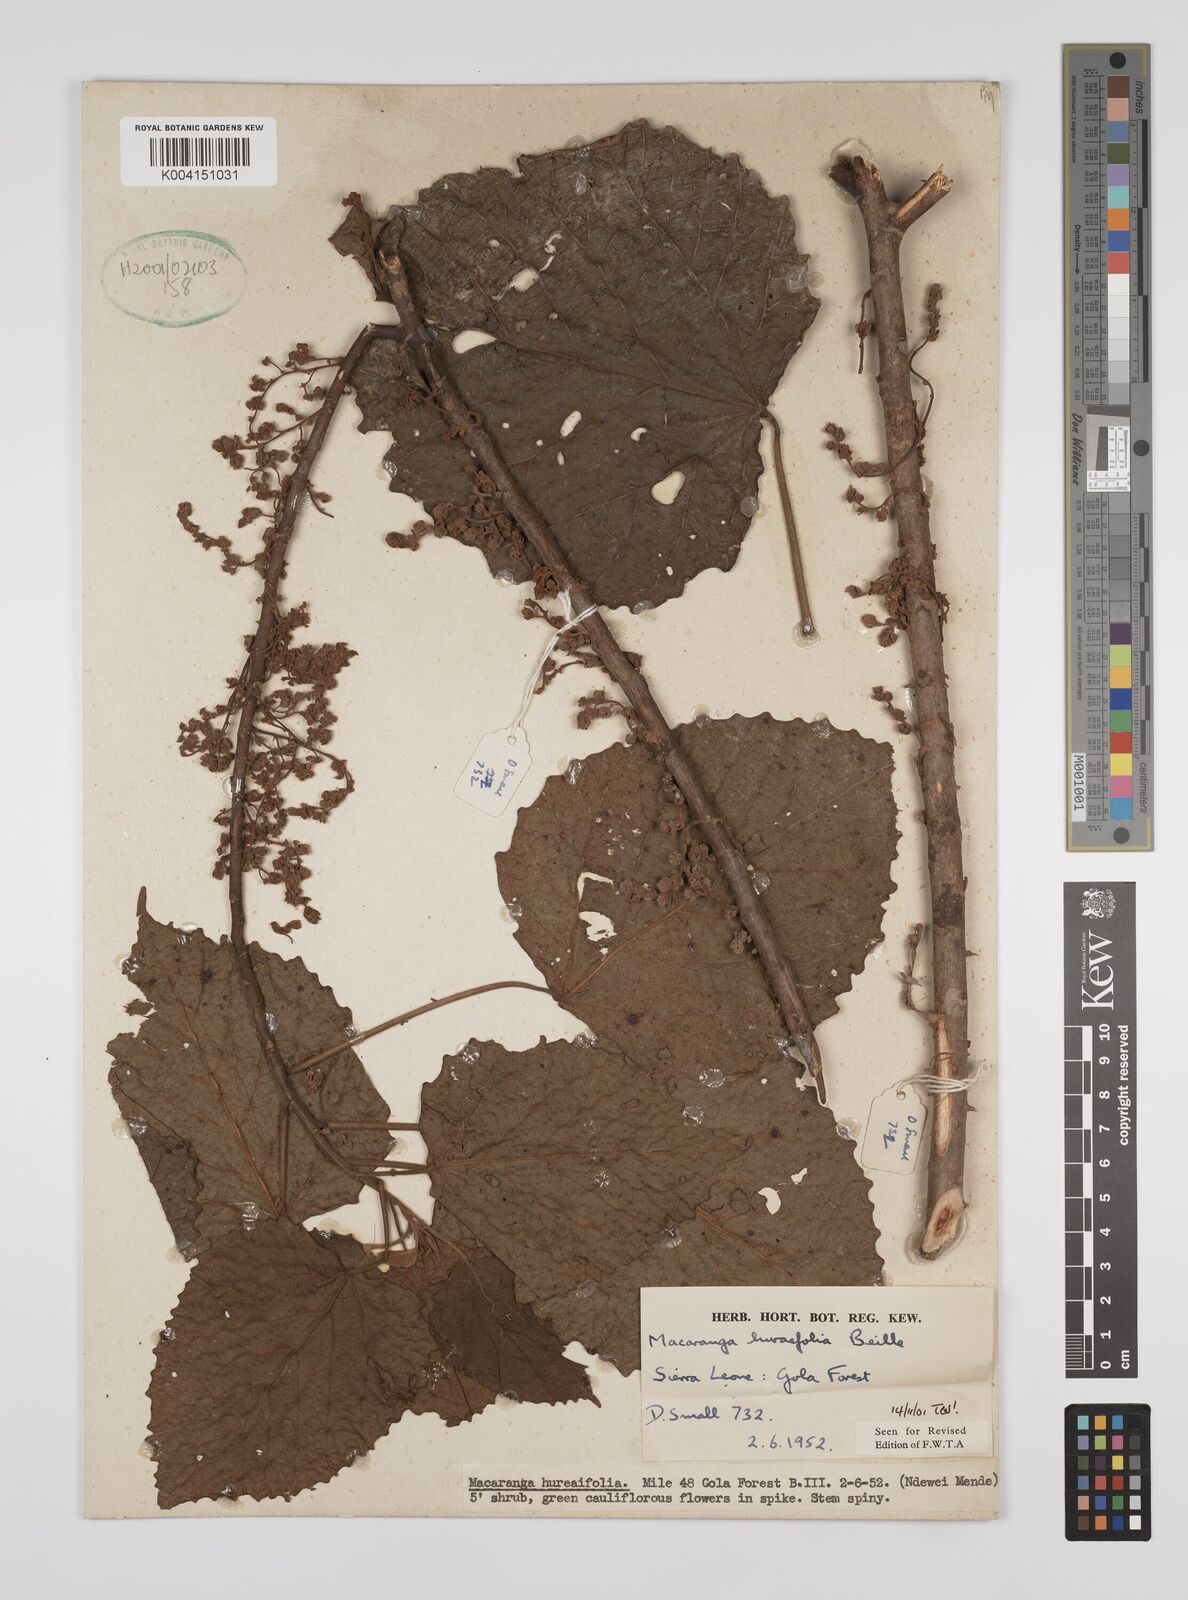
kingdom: Plantae
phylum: Tracheophyta
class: Magnoliopsida
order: Malpighiales
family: Euphorbiaceae
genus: Macaranga
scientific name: Macaranga hurifolia
